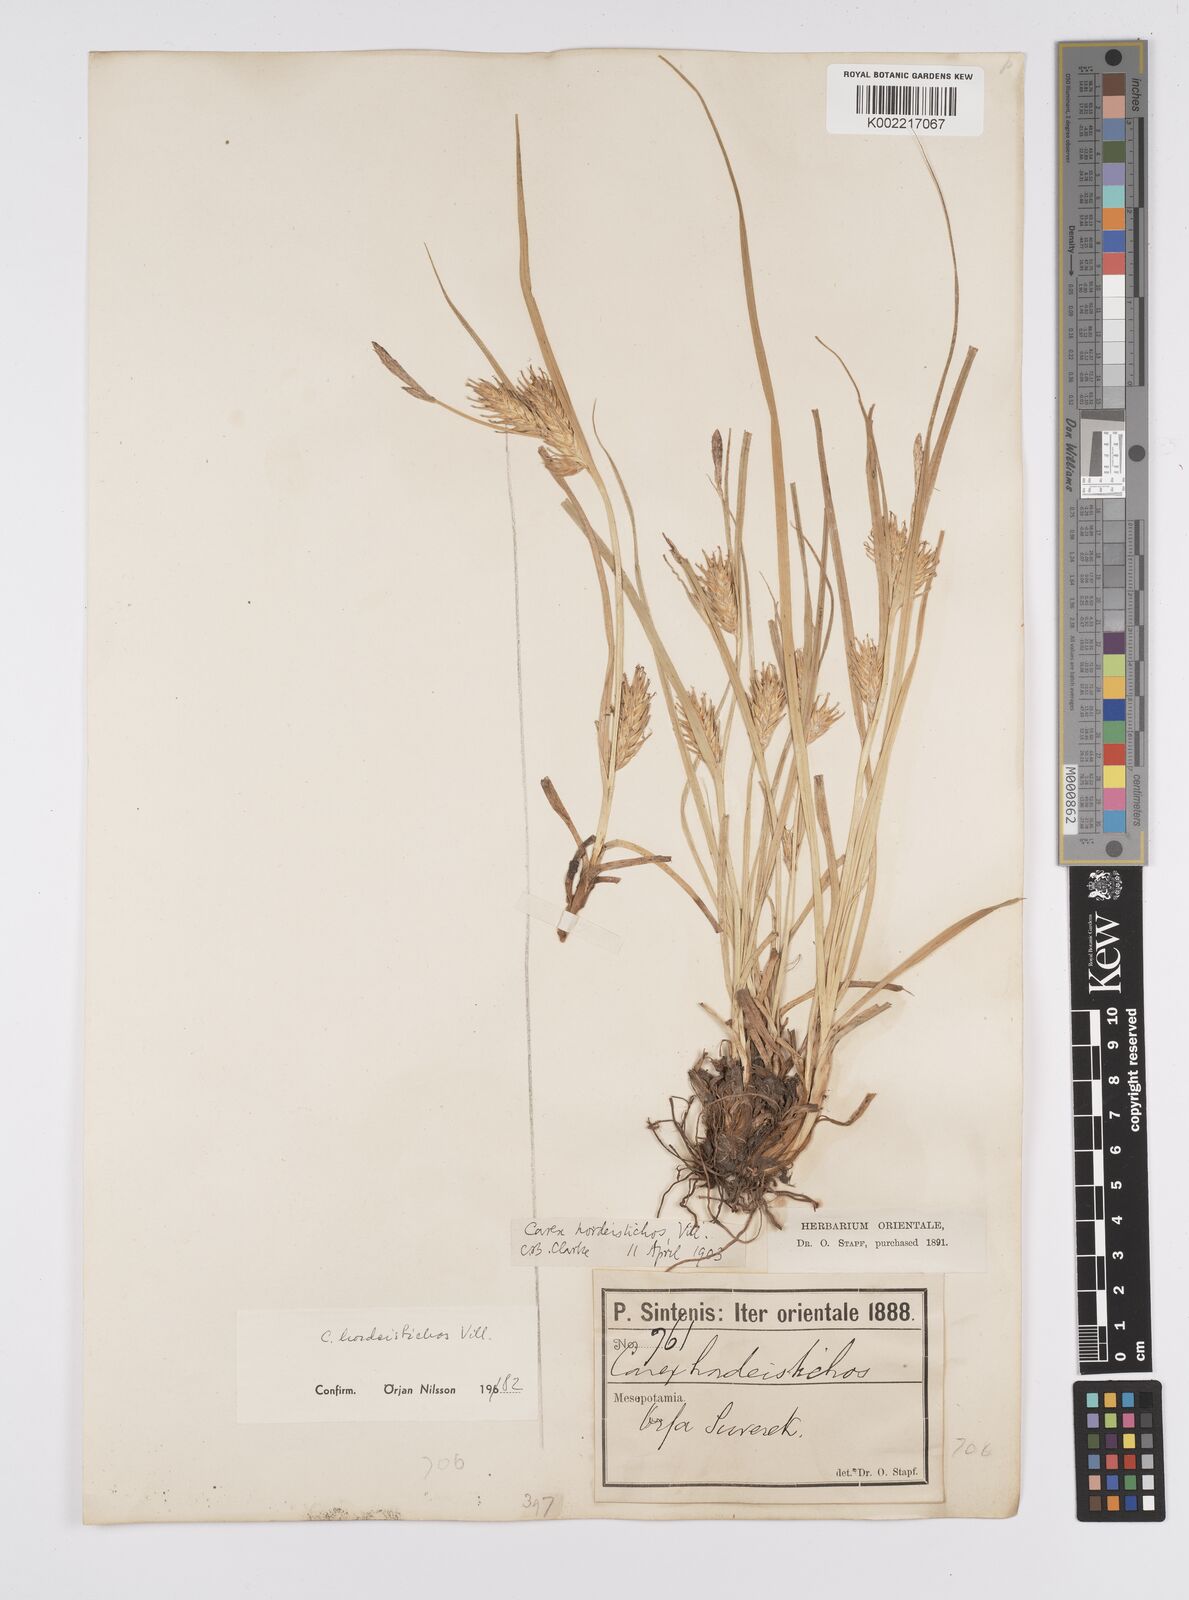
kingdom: Plantae
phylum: Tracheophyta
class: Liliopsida
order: Poales
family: Cyperaceae
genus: Carex
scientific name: Carex hordeistichos
